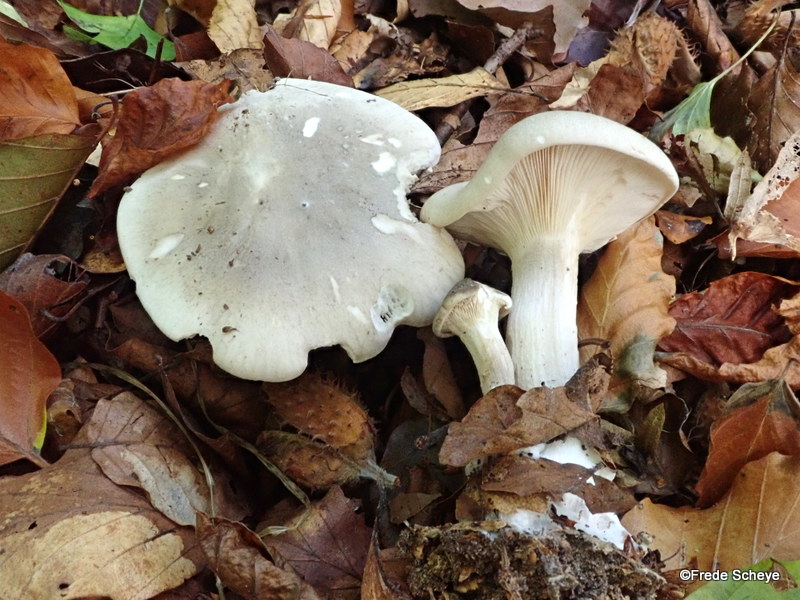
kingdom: Fungi
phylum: Basidiomycota
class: Agaricomycetes
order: Agaricales
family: Tricholomataceae
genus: Clitocybe
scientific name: Clitocybe nebularis
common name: tåge-tragthat
